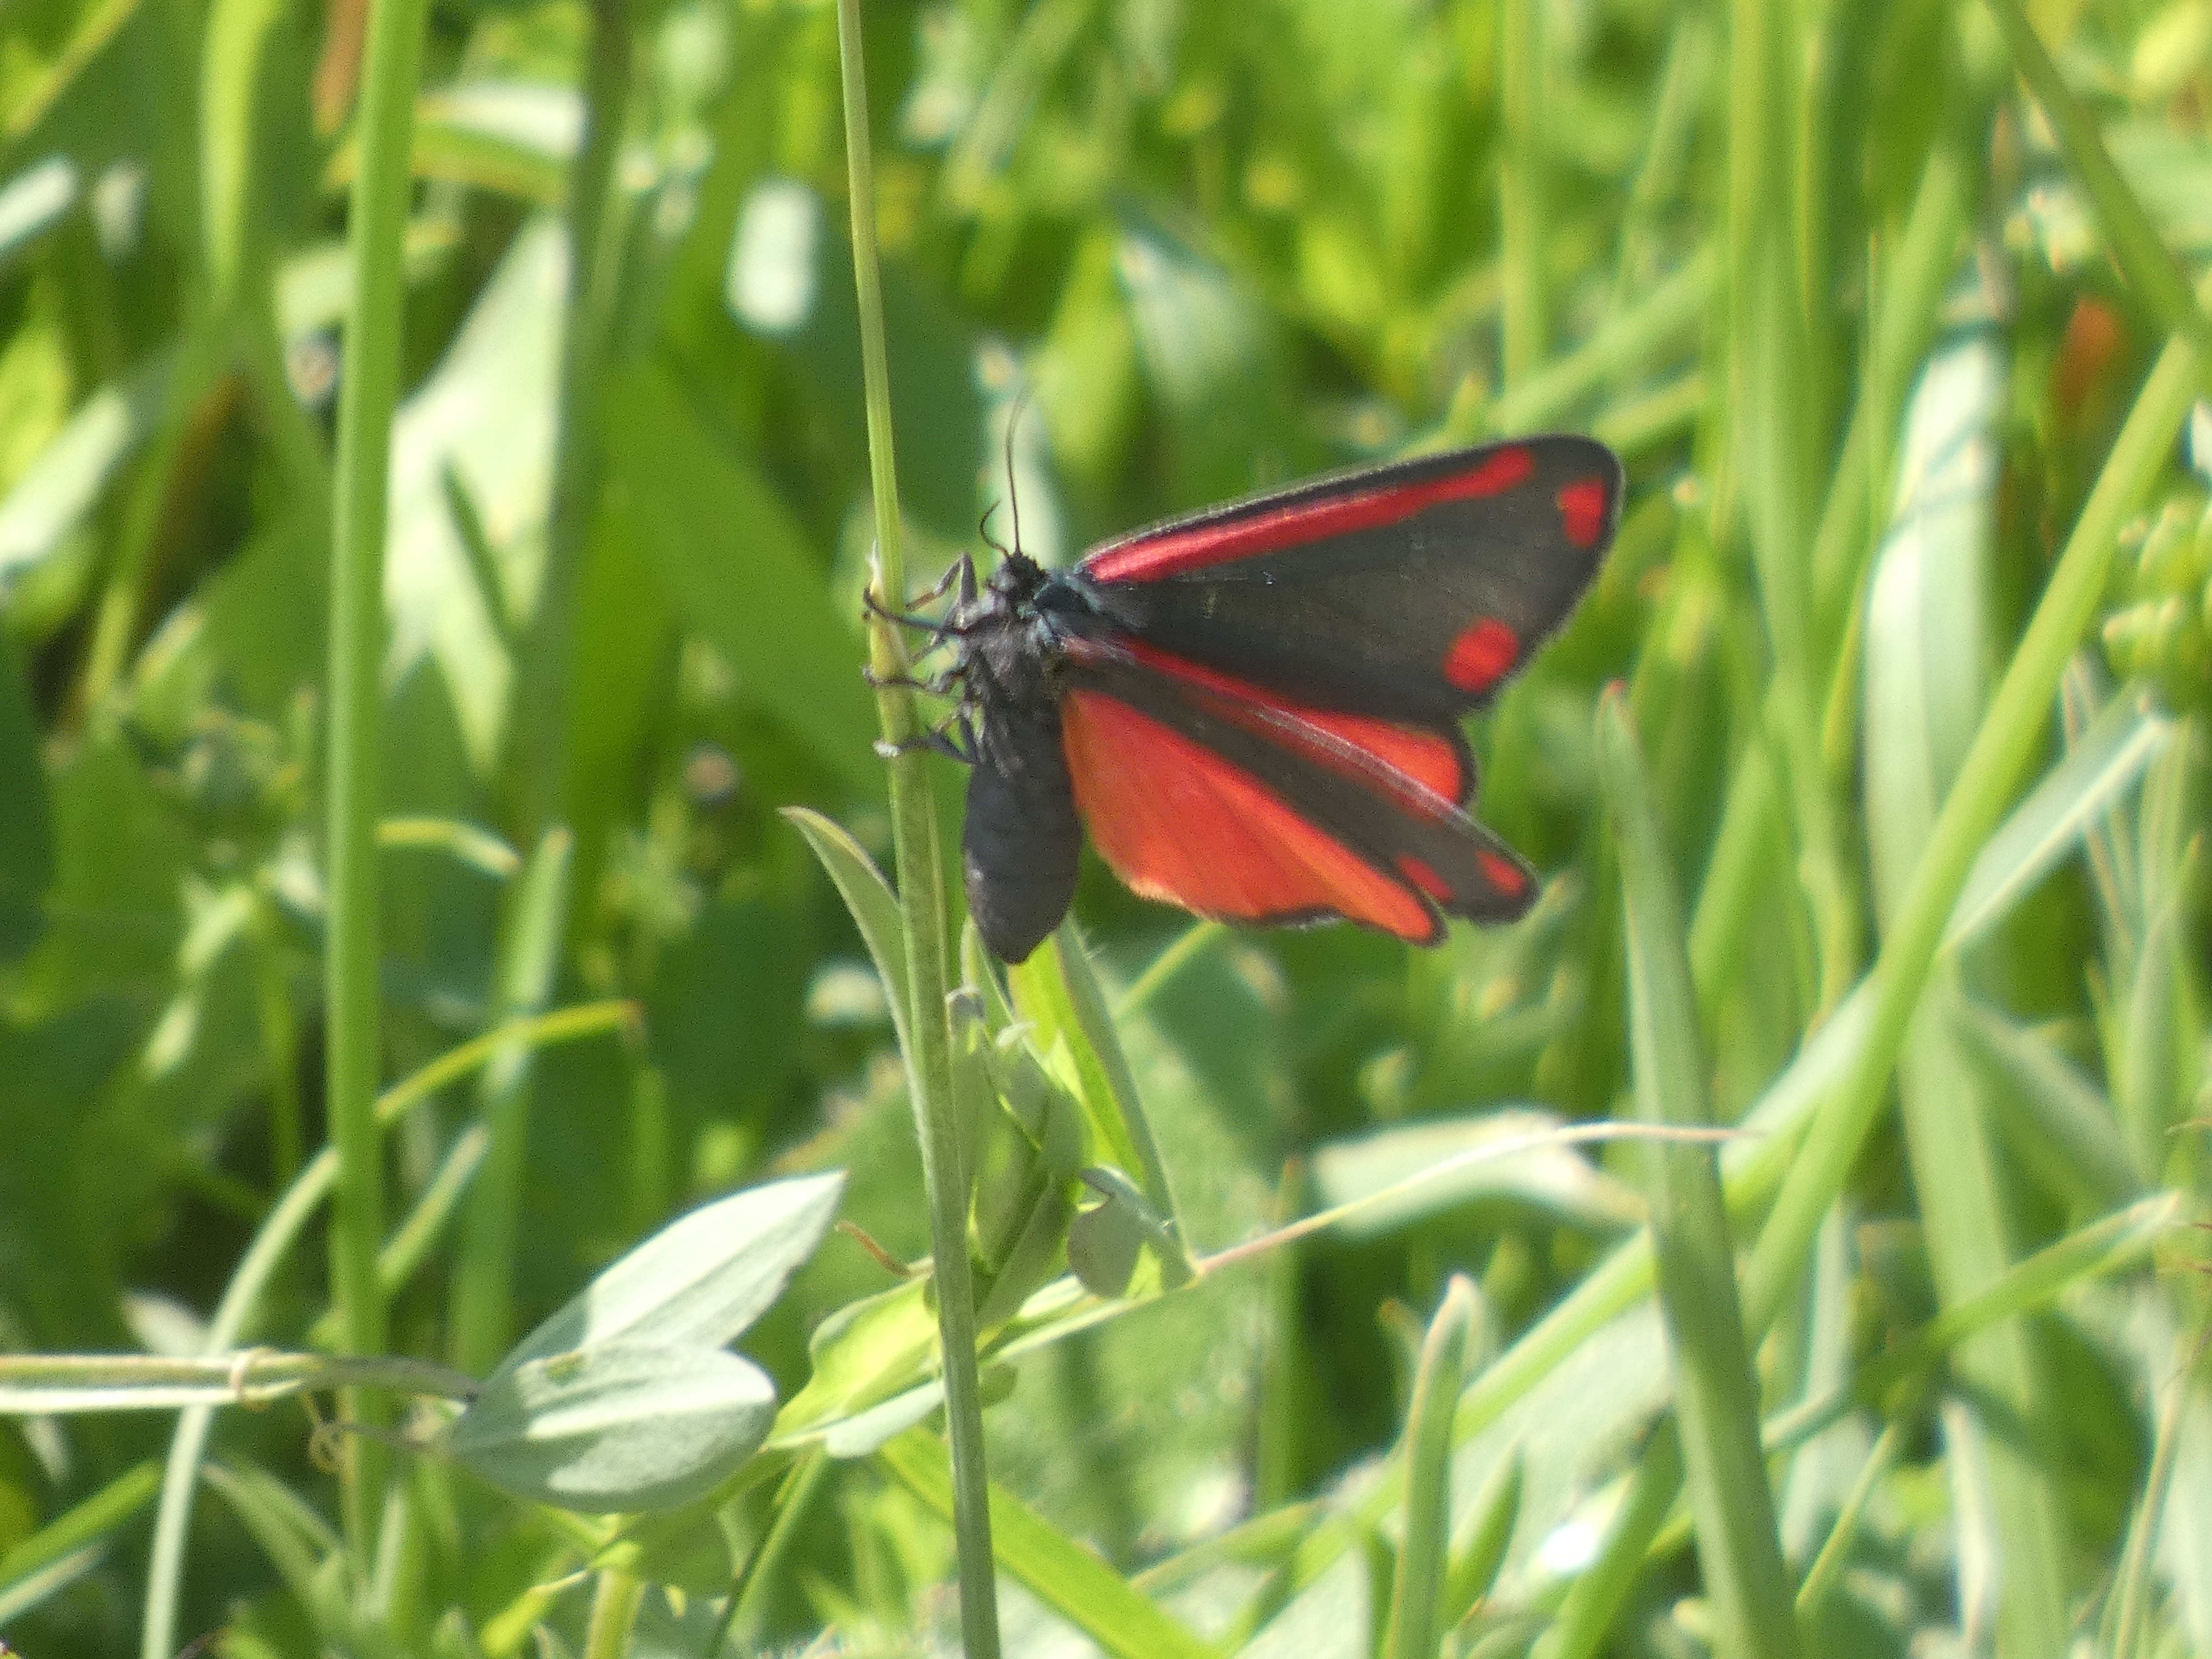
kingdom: Animalia
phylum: Arthropoda
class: Insecta
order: Lepidoptera
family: Erebidae
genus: Tyria
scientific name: Tyria jacobaeae
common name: Blodplet
